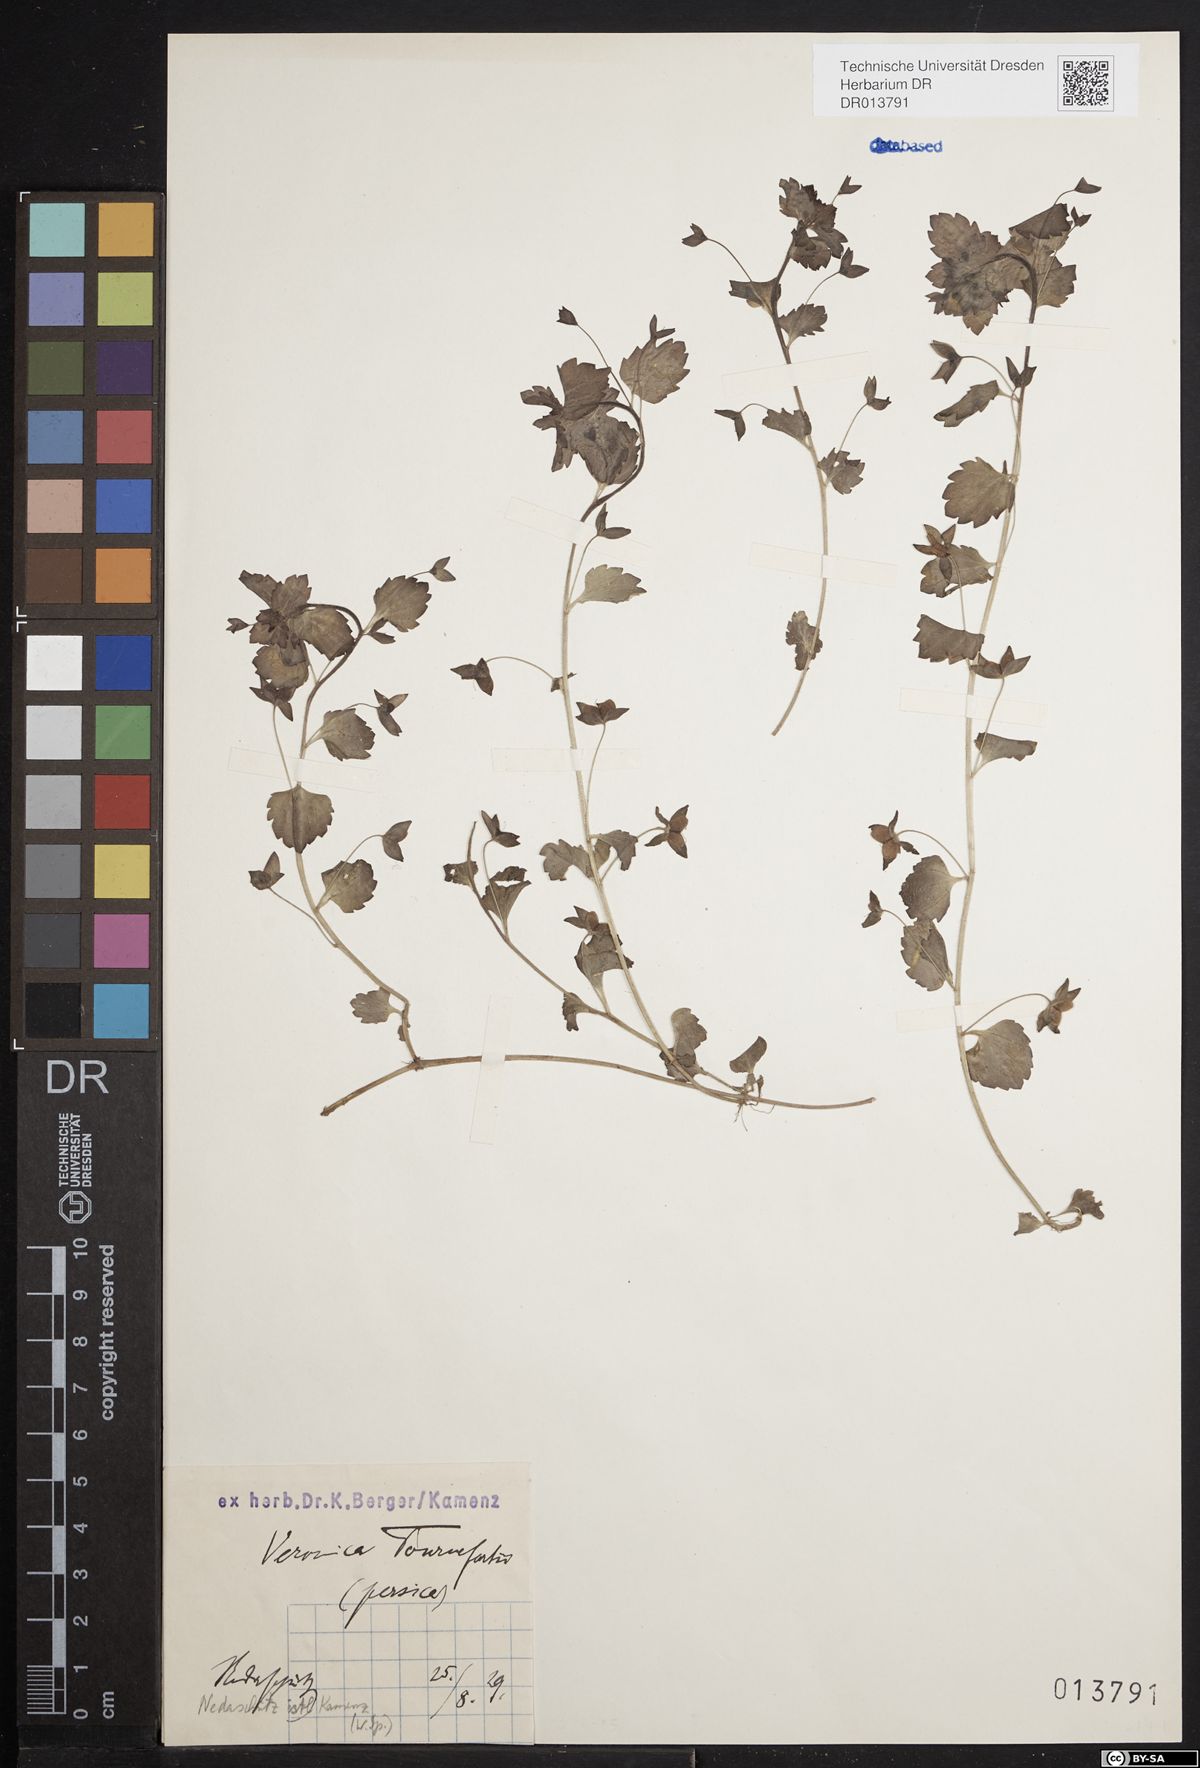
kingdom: Plantae
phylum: Tracheophyta
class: Magnoliopsida
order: Lamiales
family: Plantaginaceae
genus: Veronica
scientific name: Veronica persica
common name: Common field-speedwell
